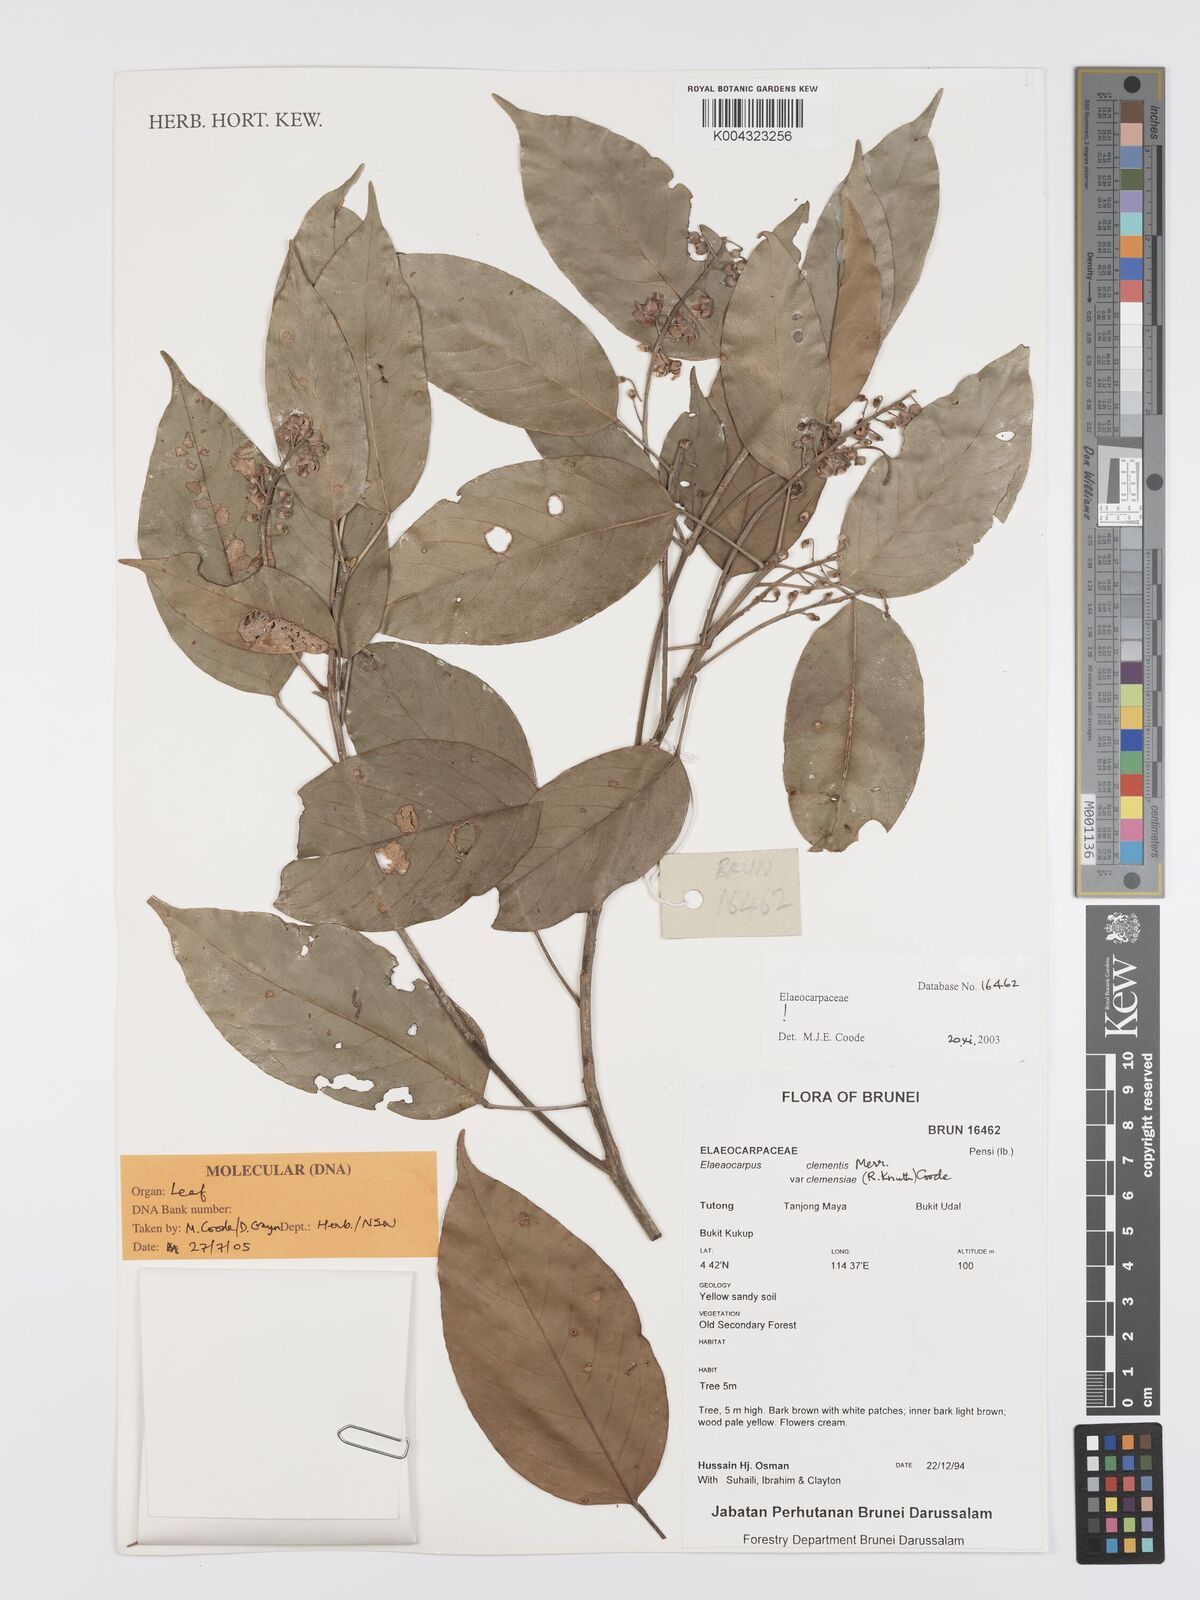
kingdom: Plantae
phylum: Tracheophyta
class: Magnoliopsida
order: Oxalidales
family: Elaeocarpaceae
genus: Elaeocarpus
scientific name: Elaeocarpus clementis
